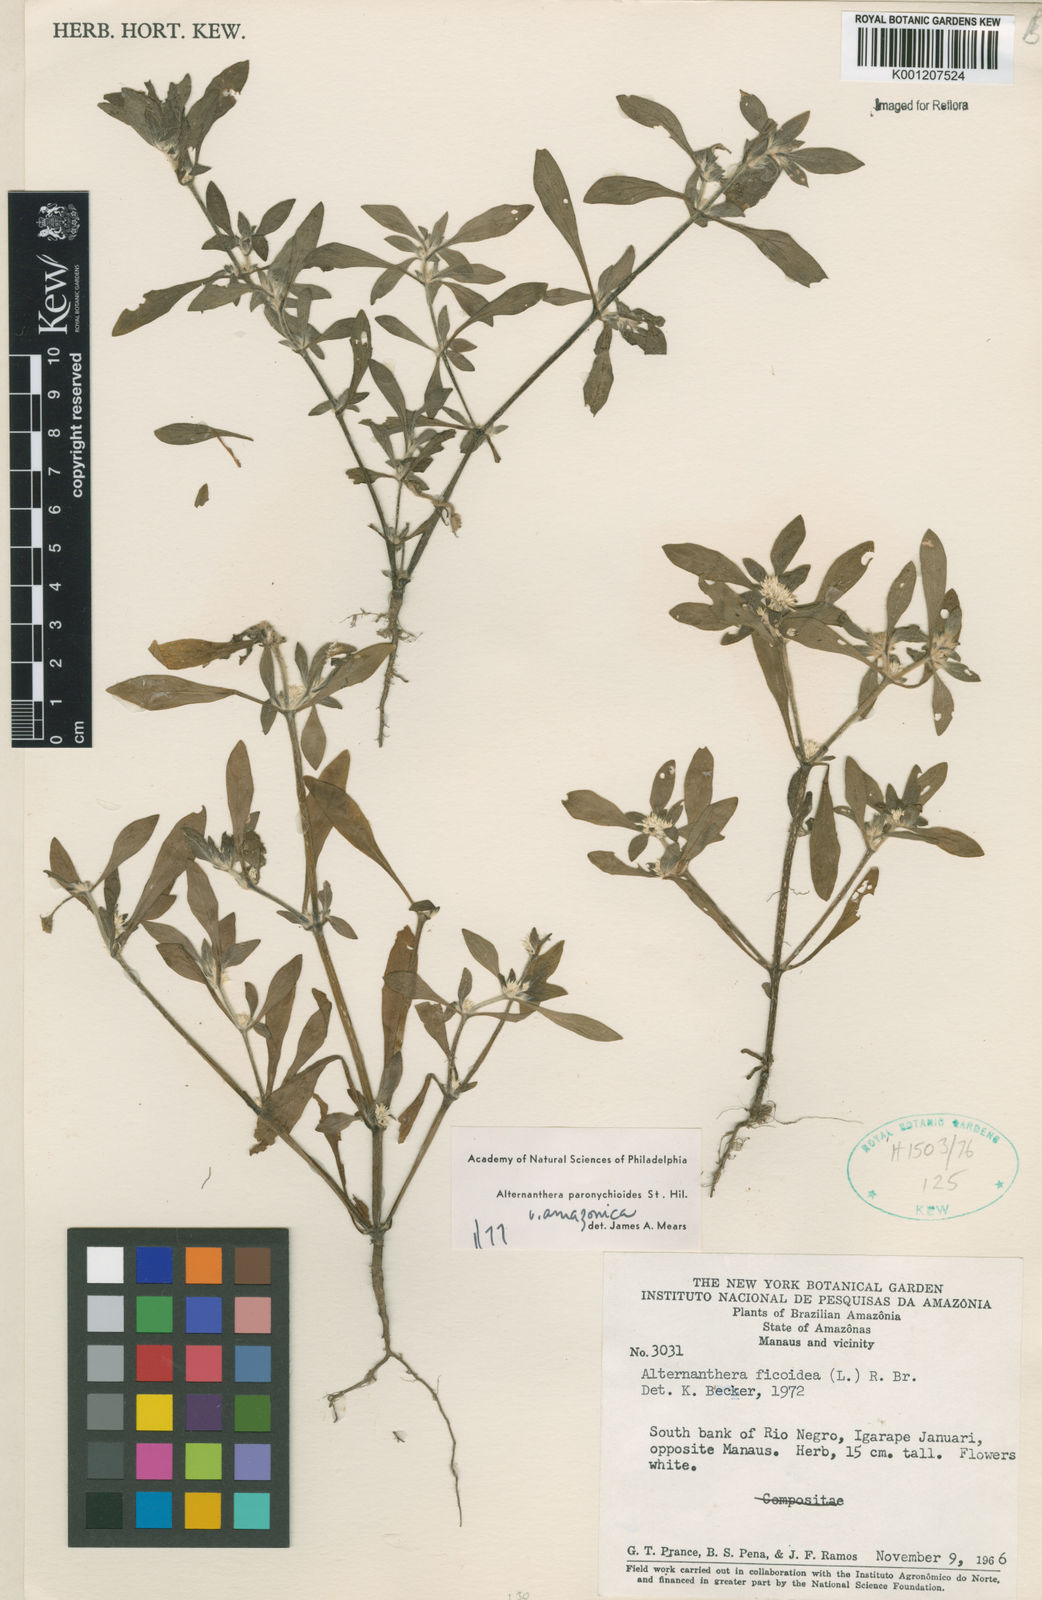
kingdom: Plantae
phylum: Tracheophyta
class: Magnoliopsida
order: Caryophyllales
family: Amaranthaceae
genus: Alternanthera
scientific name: Alternanthera paronychioides
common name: Smooth joyweed
